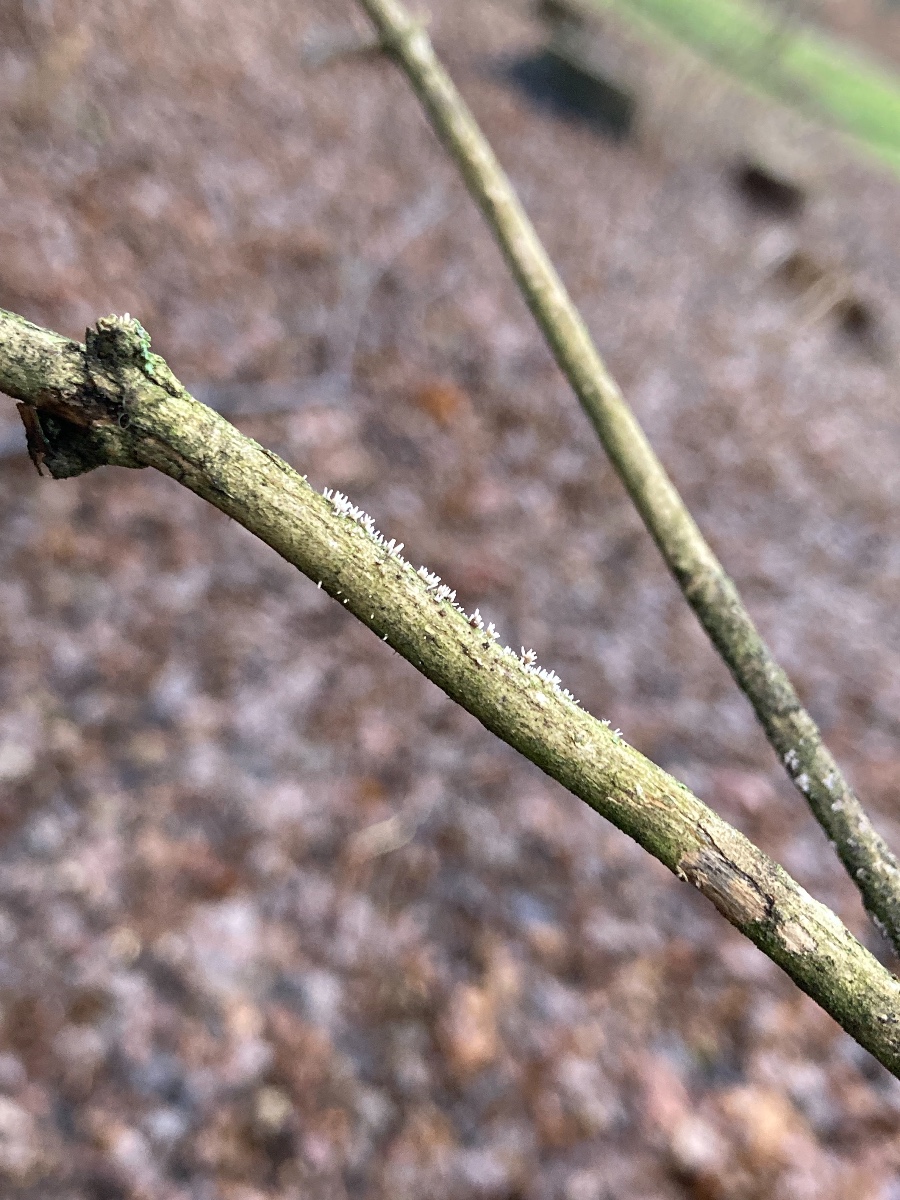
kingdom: Fungi
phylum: Ascomycota
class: Sordariomycetes
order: Hypocreales
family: Cordycipitaceae
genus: Isaria
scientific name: Isaria friesii
